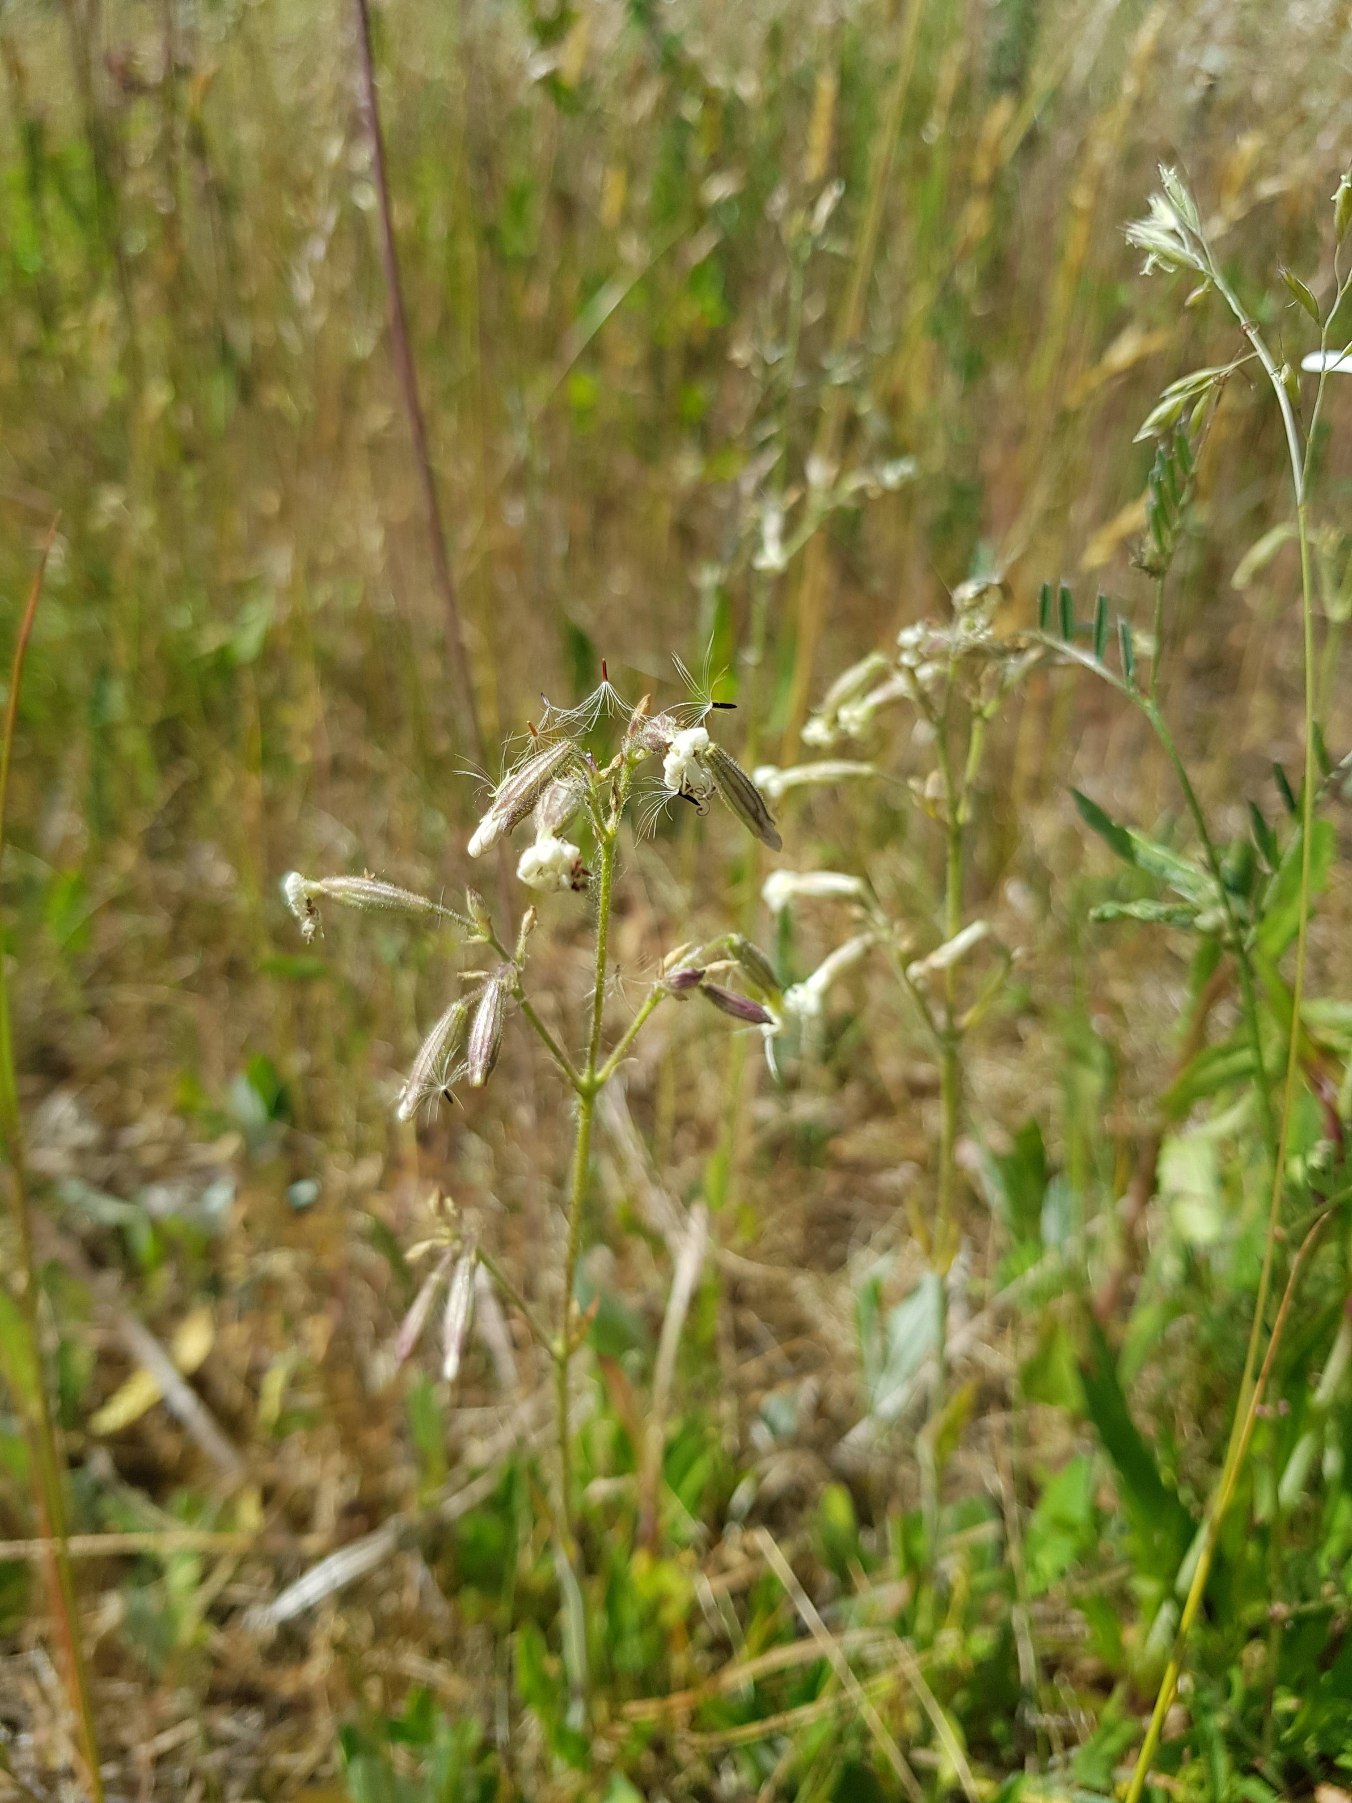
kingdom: Plantae
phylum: Tracheophyta
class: Magnoliopsida
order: Caryophyllales
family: Caryophyllaceae
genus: Silene
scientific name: Silene nutans
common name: Nikkende limurt
